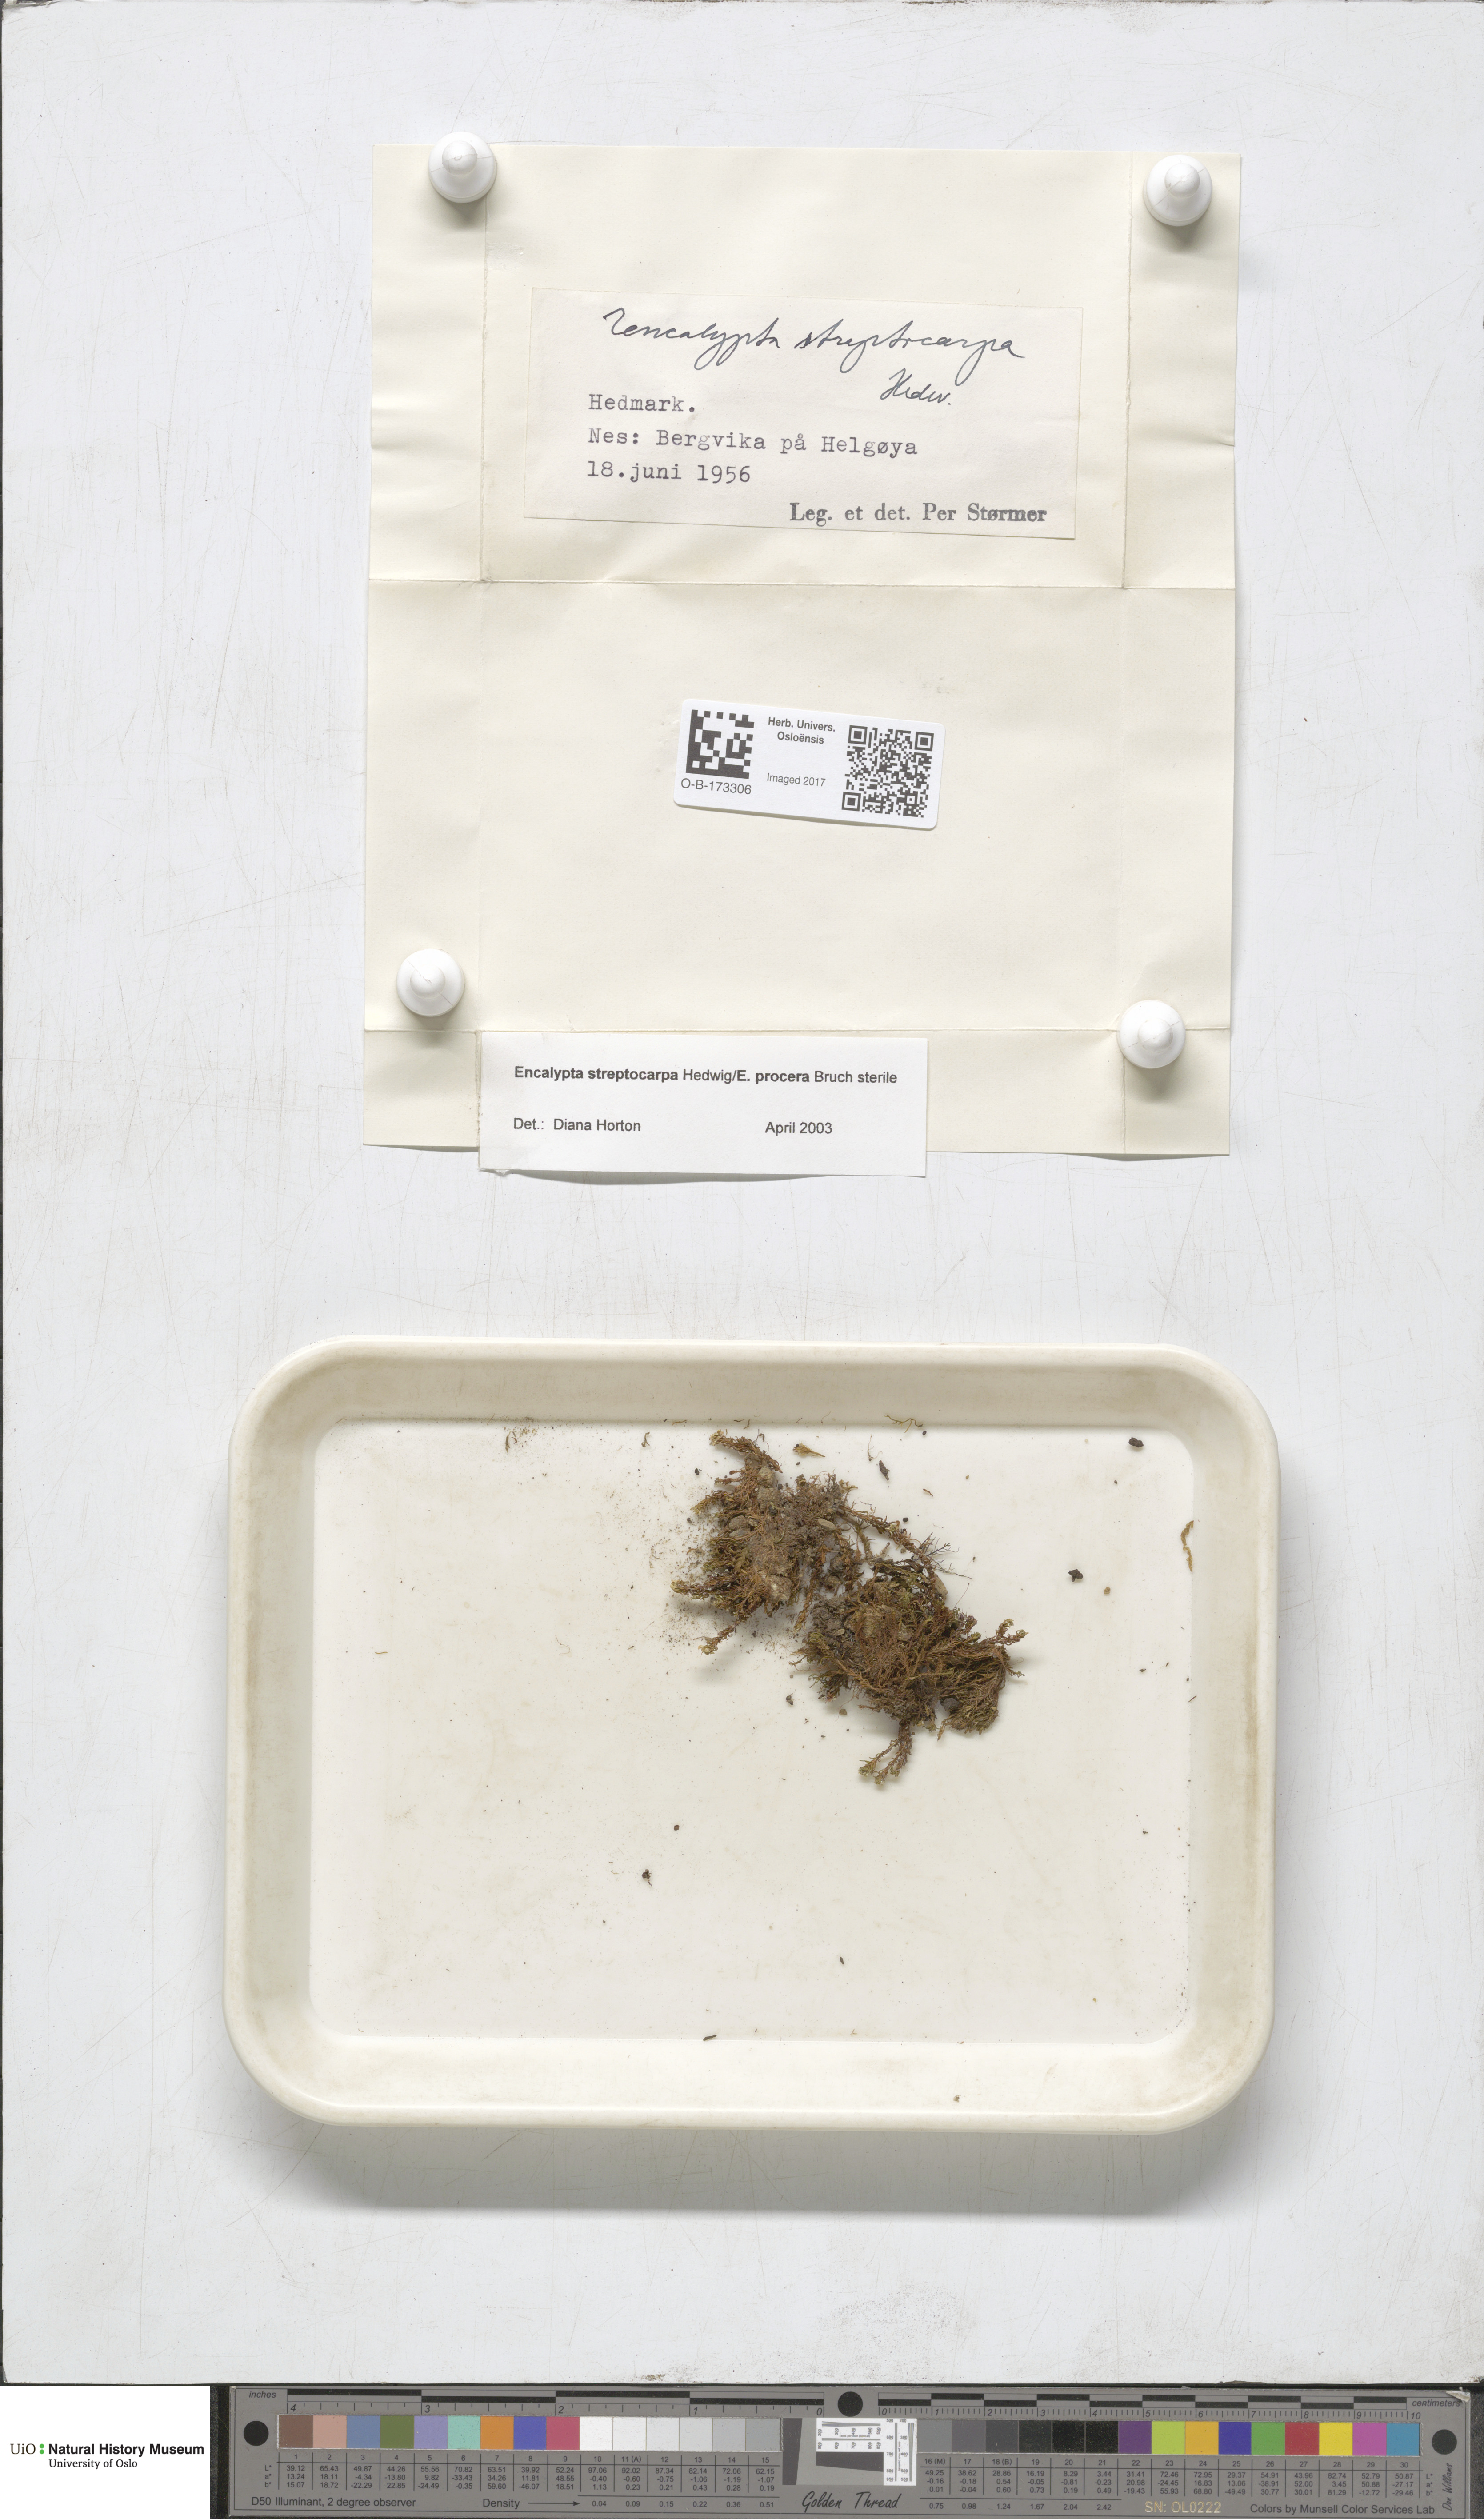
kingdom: Plantae
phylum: Bryophyta
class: Bryopsida
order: Encalyptales
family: Encalyptaceae
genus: Encalypta
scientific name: Encalypta streptocarpa
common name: Spiral extinguisher-moss
